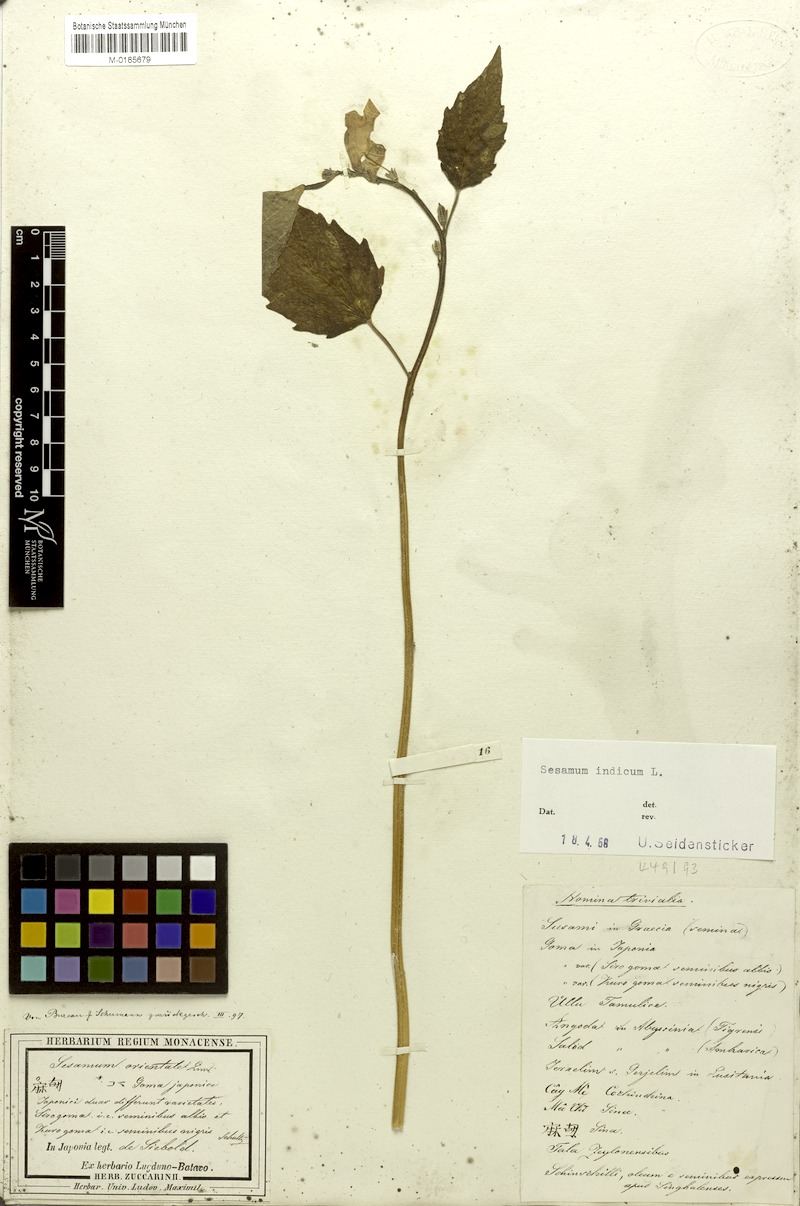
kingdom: Plantae
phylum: Tracheophyta
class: Magnoliopsida
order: Lamiales
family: Pedaliaceae
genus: Sesamum
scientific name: Sesamum indicum
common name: Sesame
